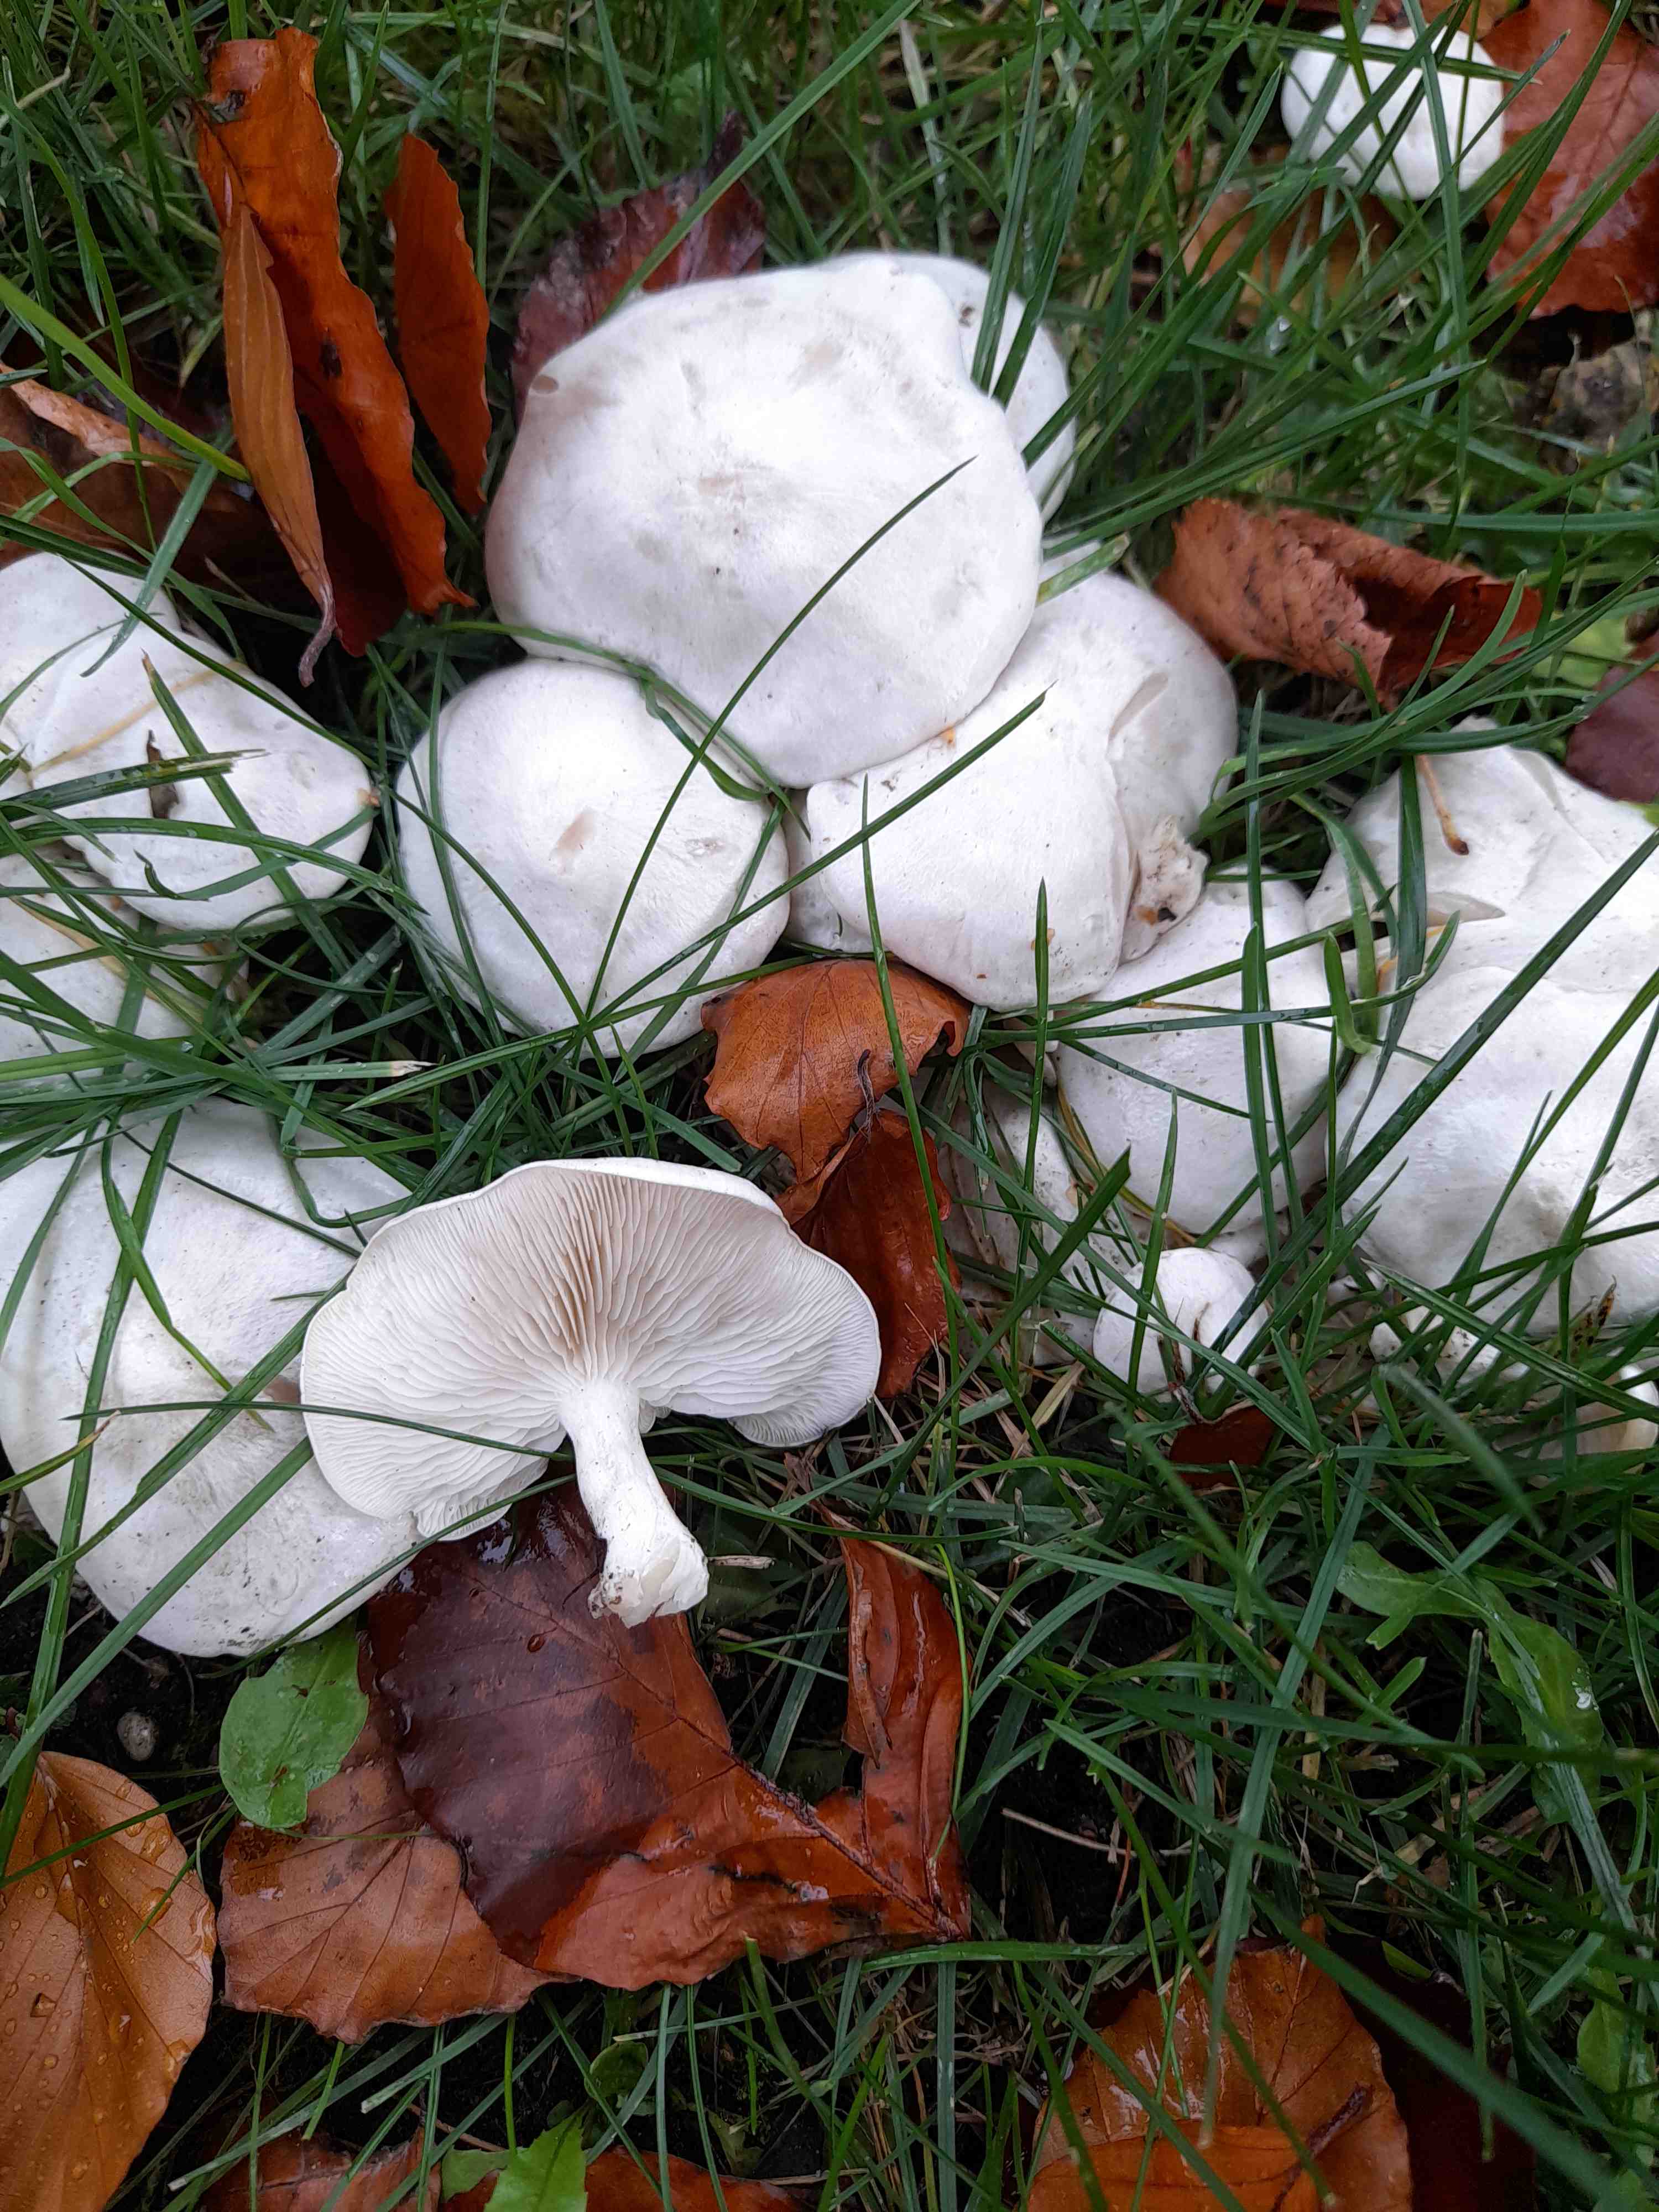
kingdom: Fungi
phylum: Basidiomycota
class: Agaricomycetes
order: Agaricales
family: Tricholomataceae
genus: Leucocybe
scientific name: Leucocybe connata
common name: knippe-tragthat
